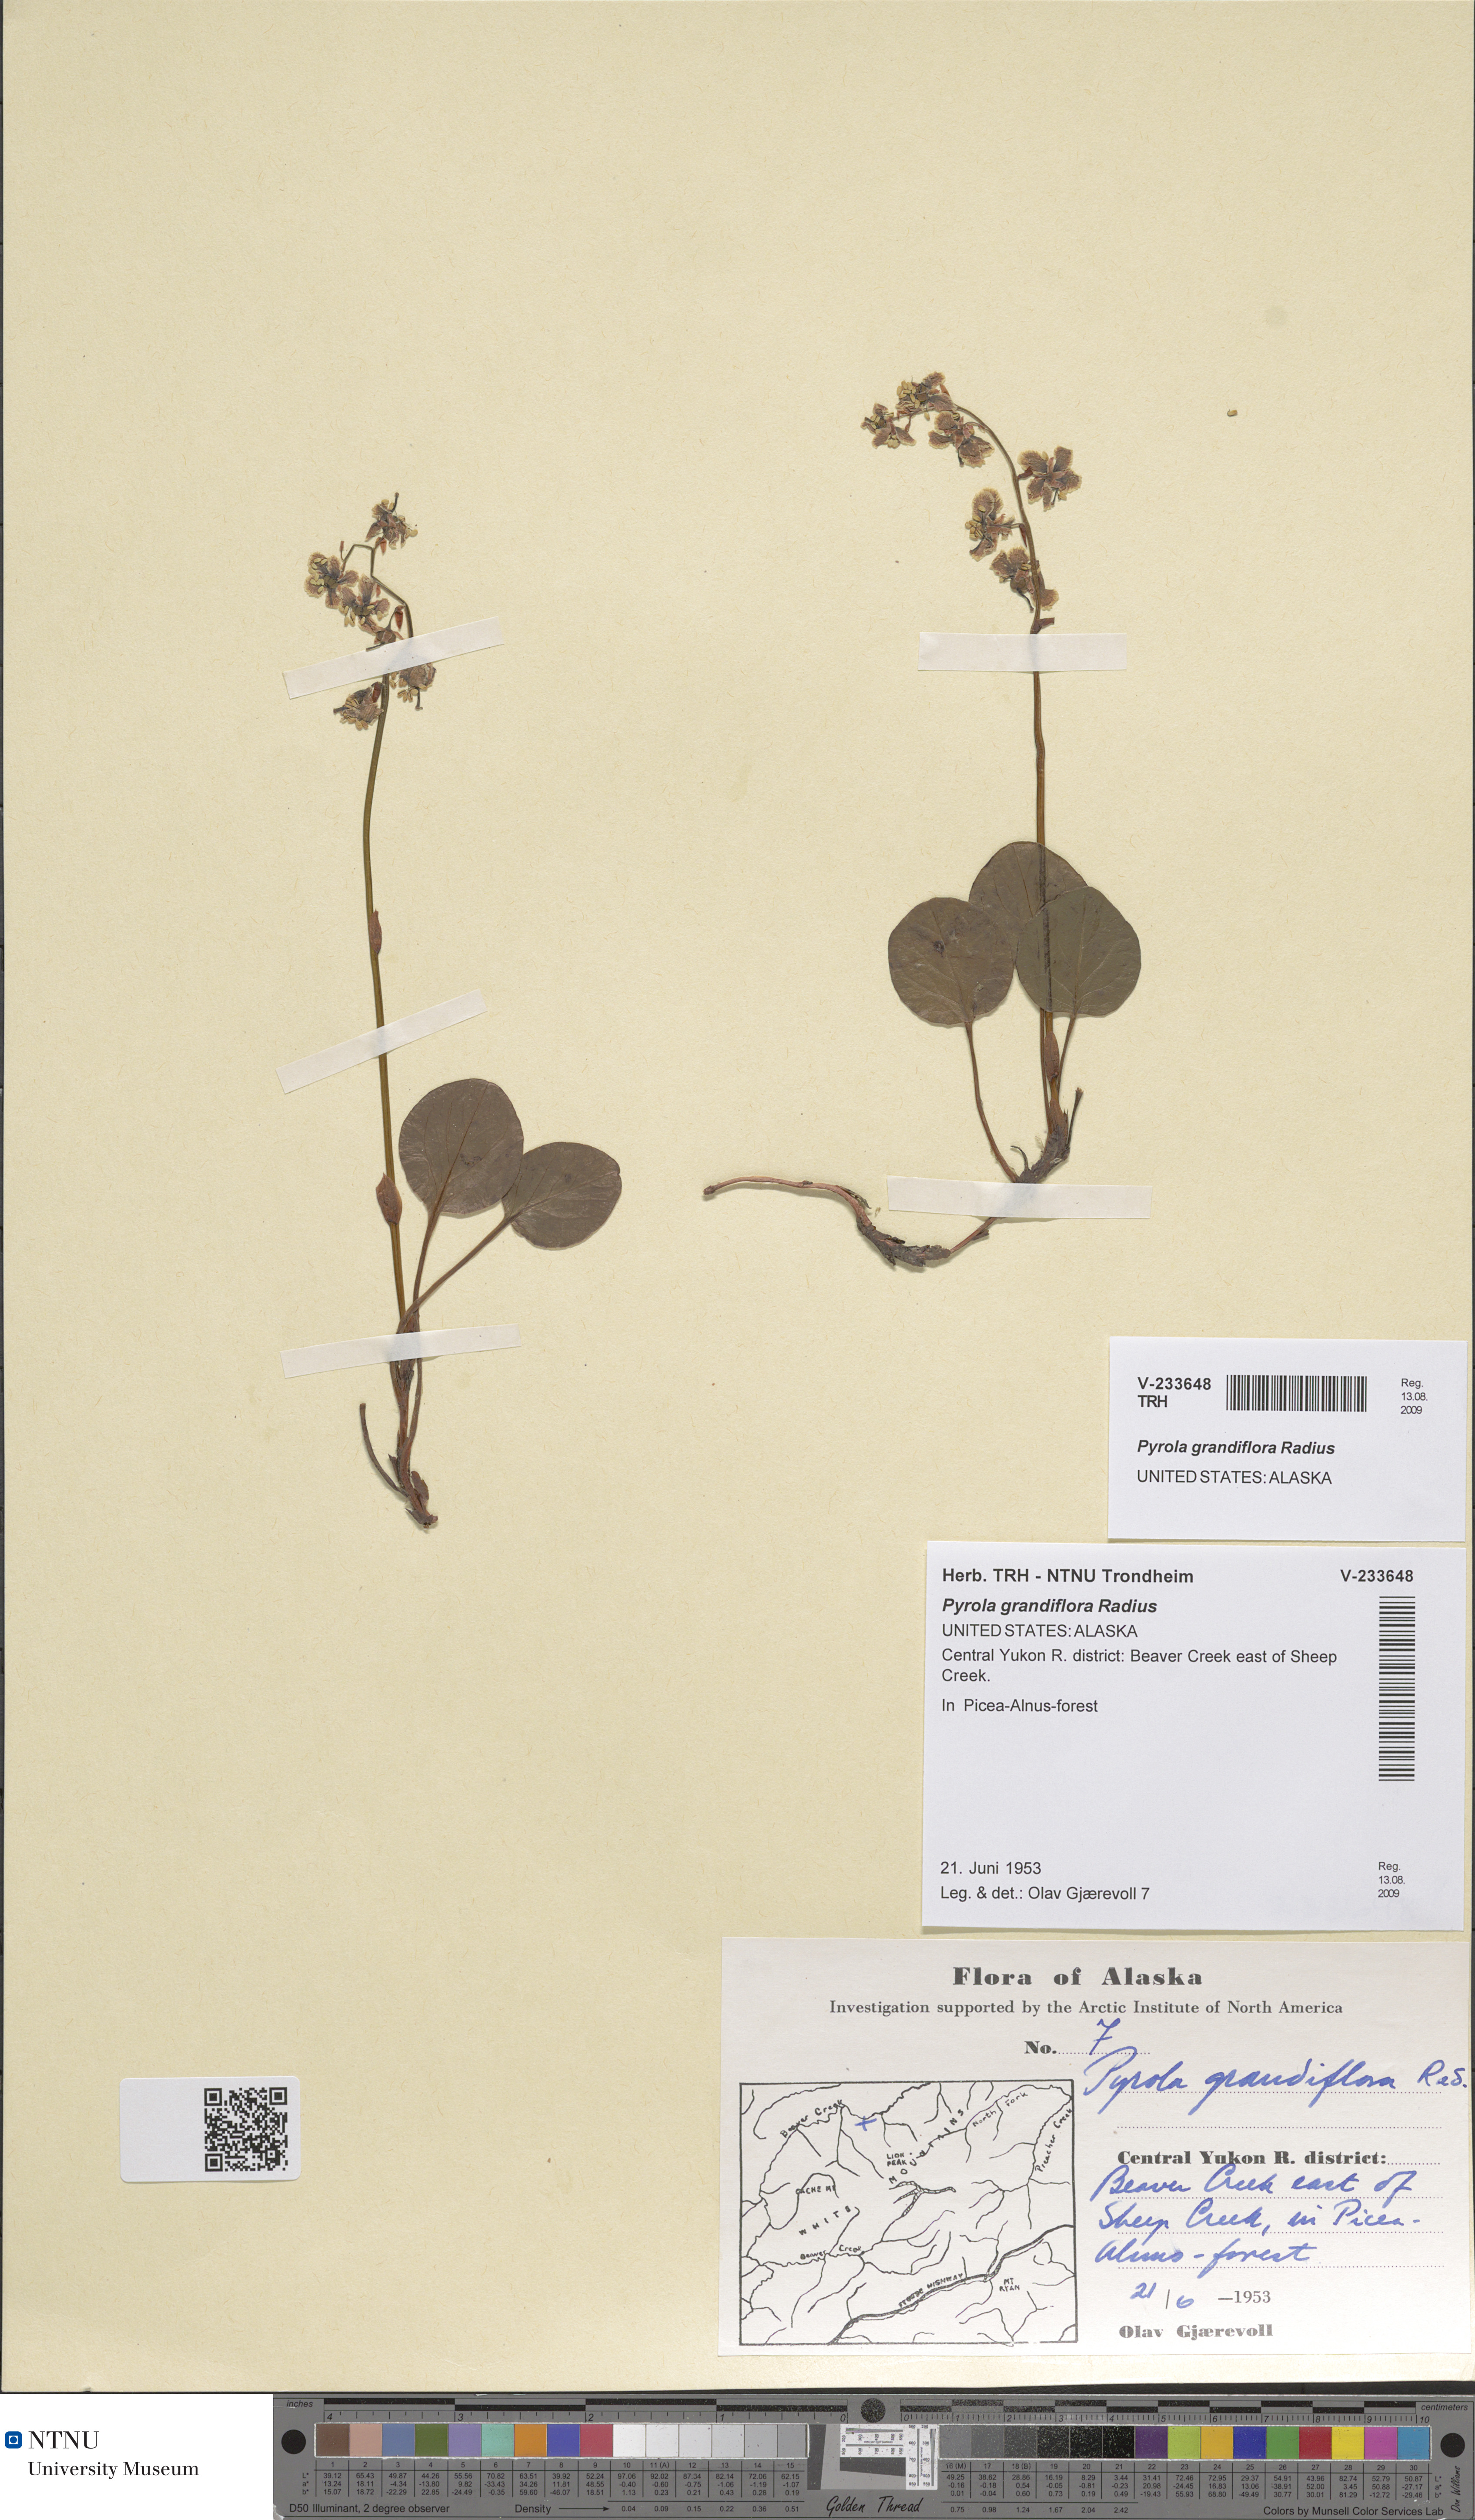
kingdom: Plantae
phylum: Tracheophyta
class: Magnoliopsida
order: Ericales
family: Ericaceae
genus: Pyrola
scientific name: Pyrola grandiflora
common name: Arctic pyrola
